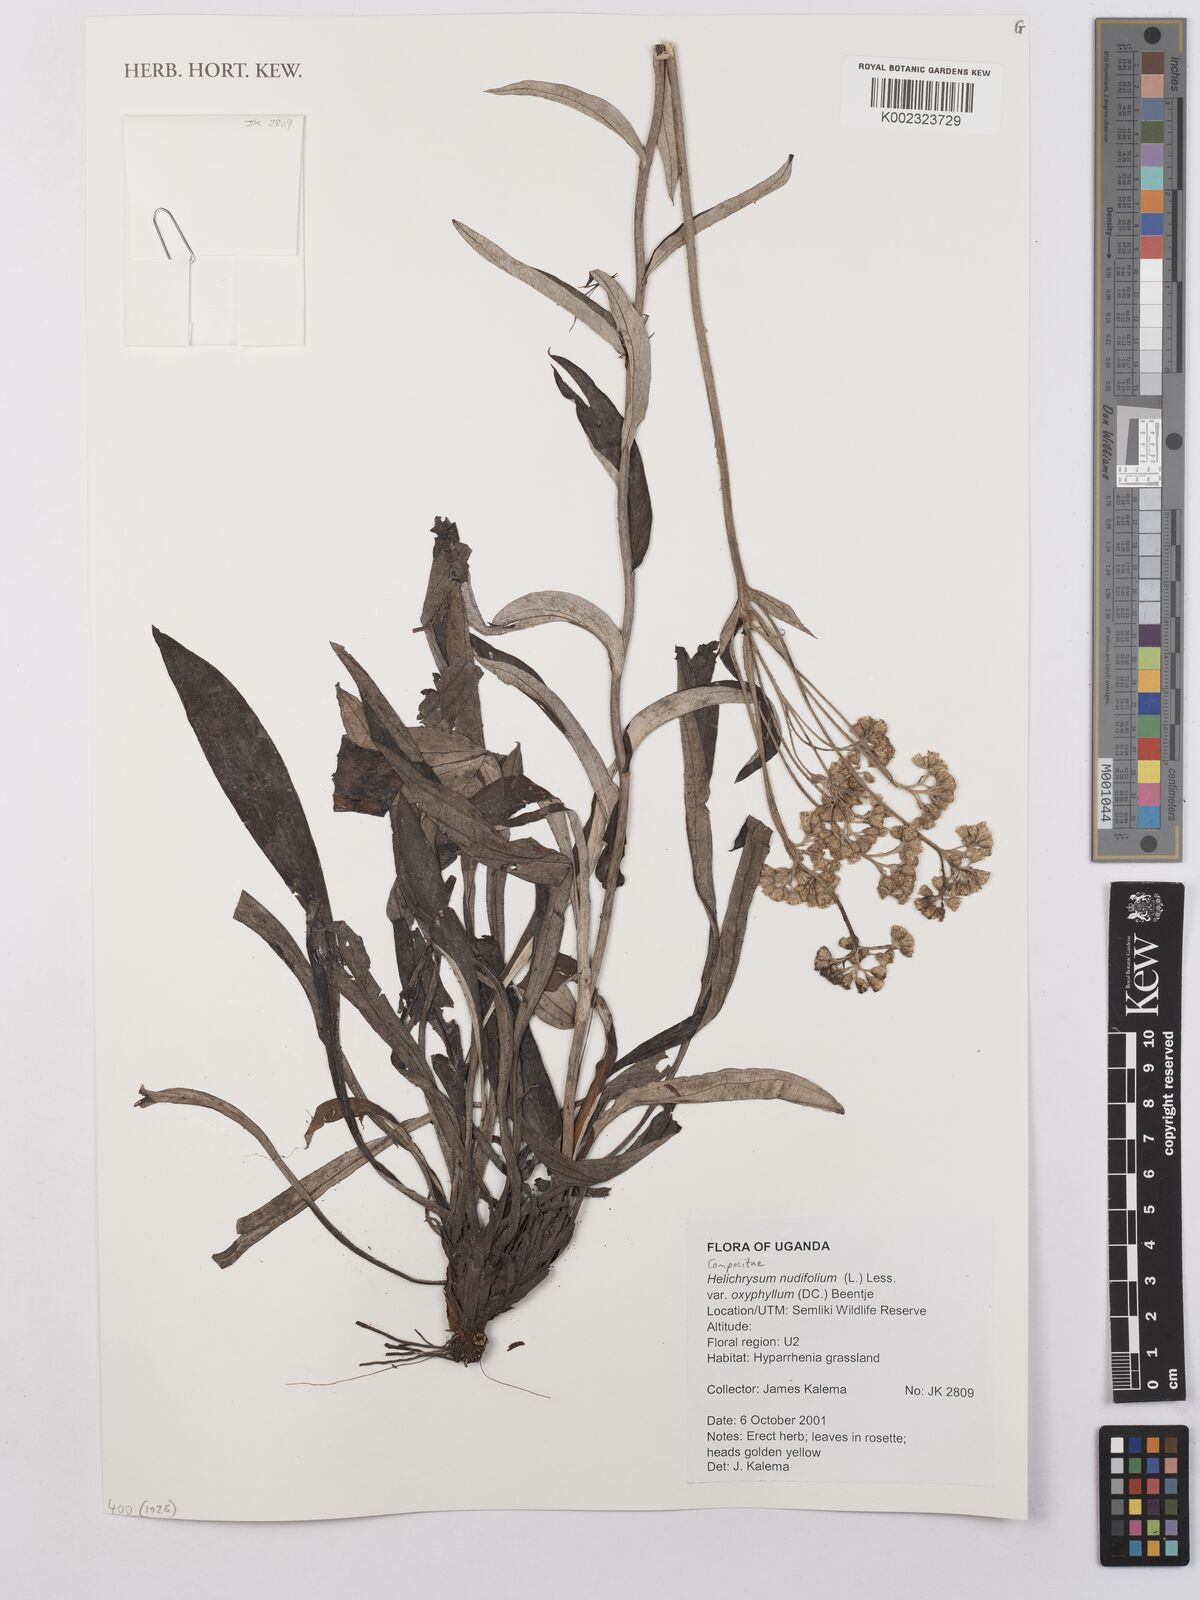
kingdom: Plantae
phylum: Tracheophyta
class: Magnoliopsida
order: Asterales
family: Asteraceae
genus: Helichrysum
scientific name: Helichrysum nudifolium
